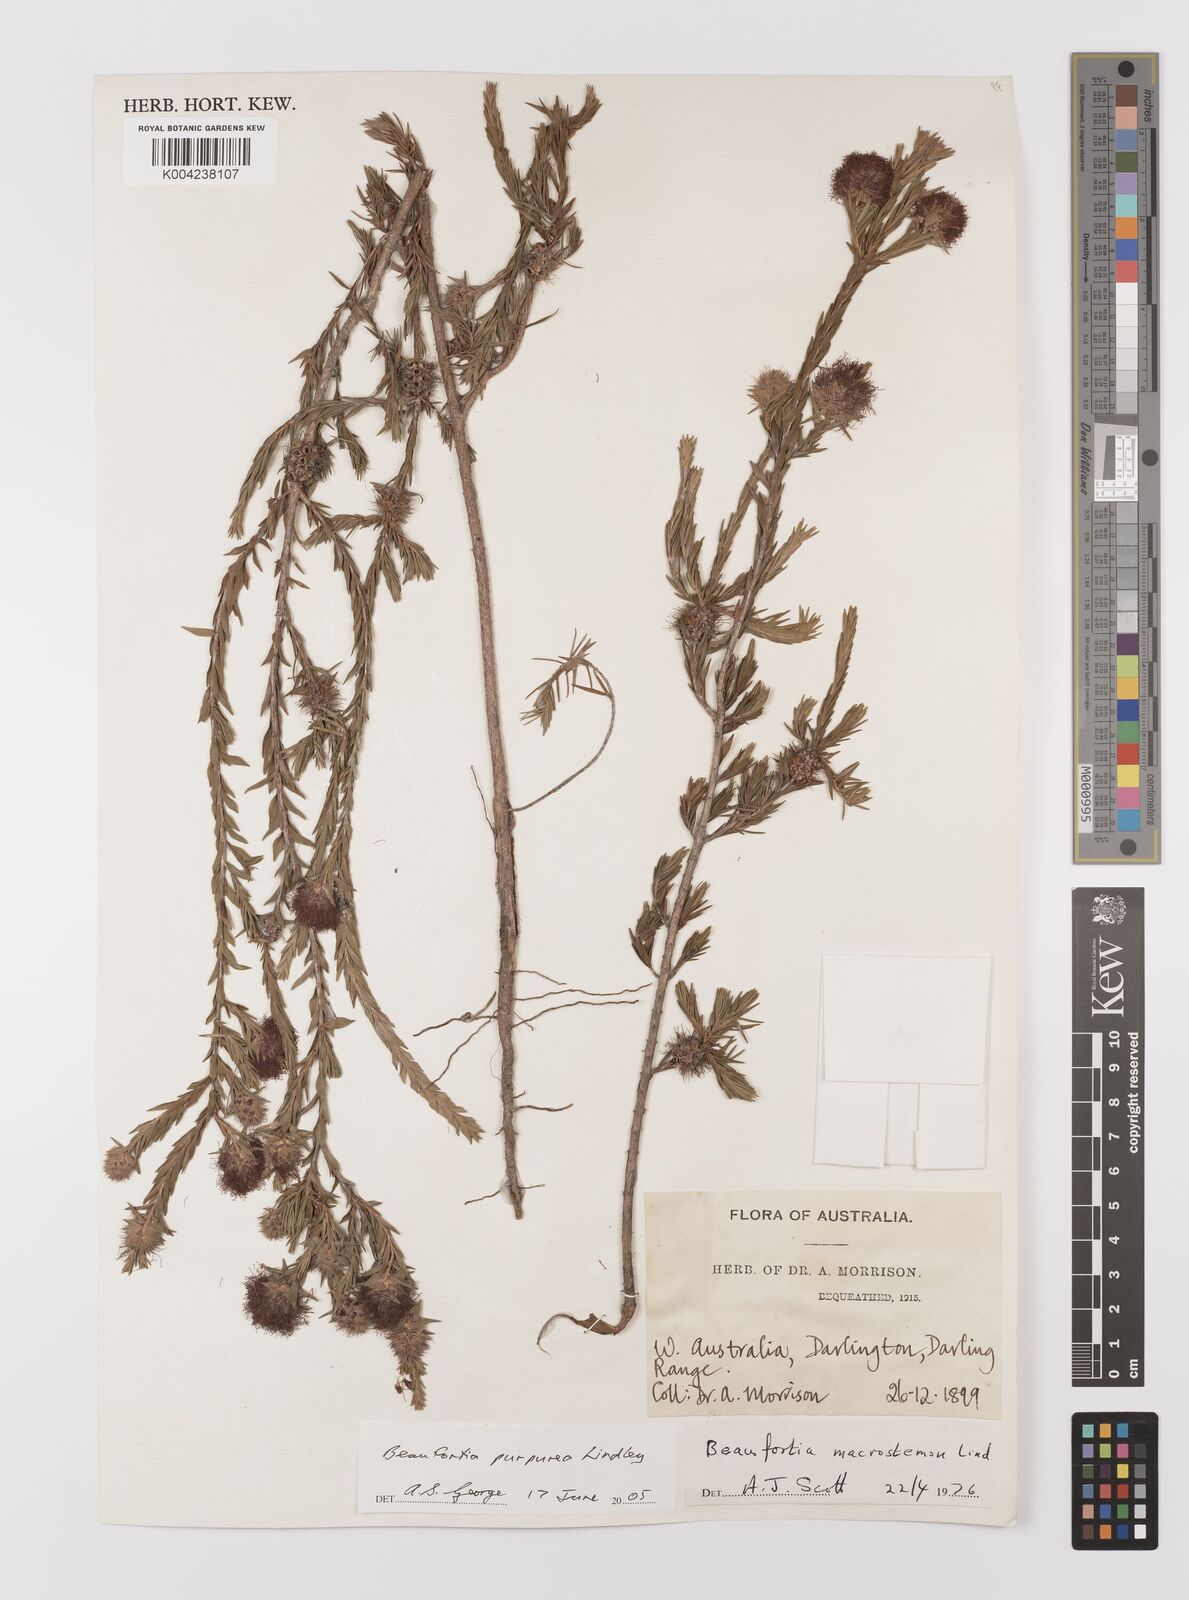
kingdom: Plantae
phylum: Tracheophyta
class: Magnoliopsida
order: Myrtales
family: Myrtaceae
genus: Melaleuca
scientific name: Melaleuca purpurea
